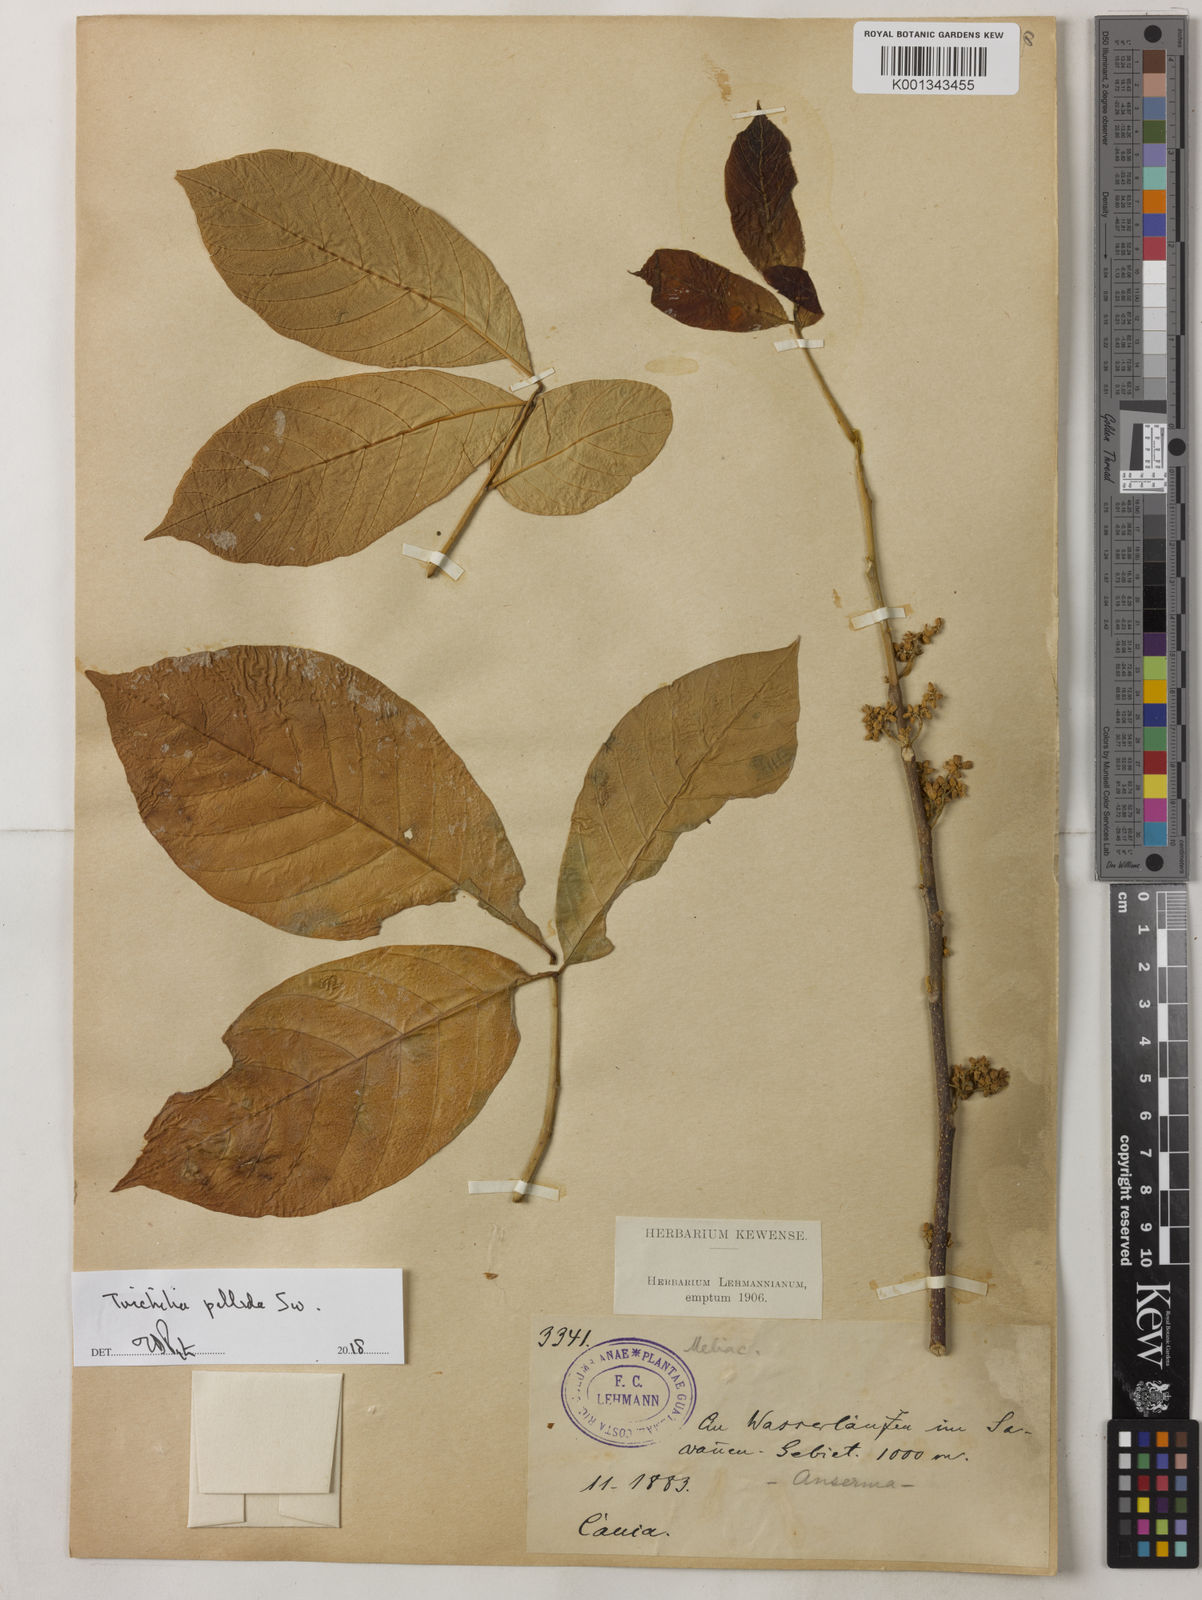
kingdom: Plantae
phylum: Tracheophyta
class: Magnoliopsida
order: Sapindales
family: Meliaceae
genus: Trichilia
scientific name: Trichilia pallida
